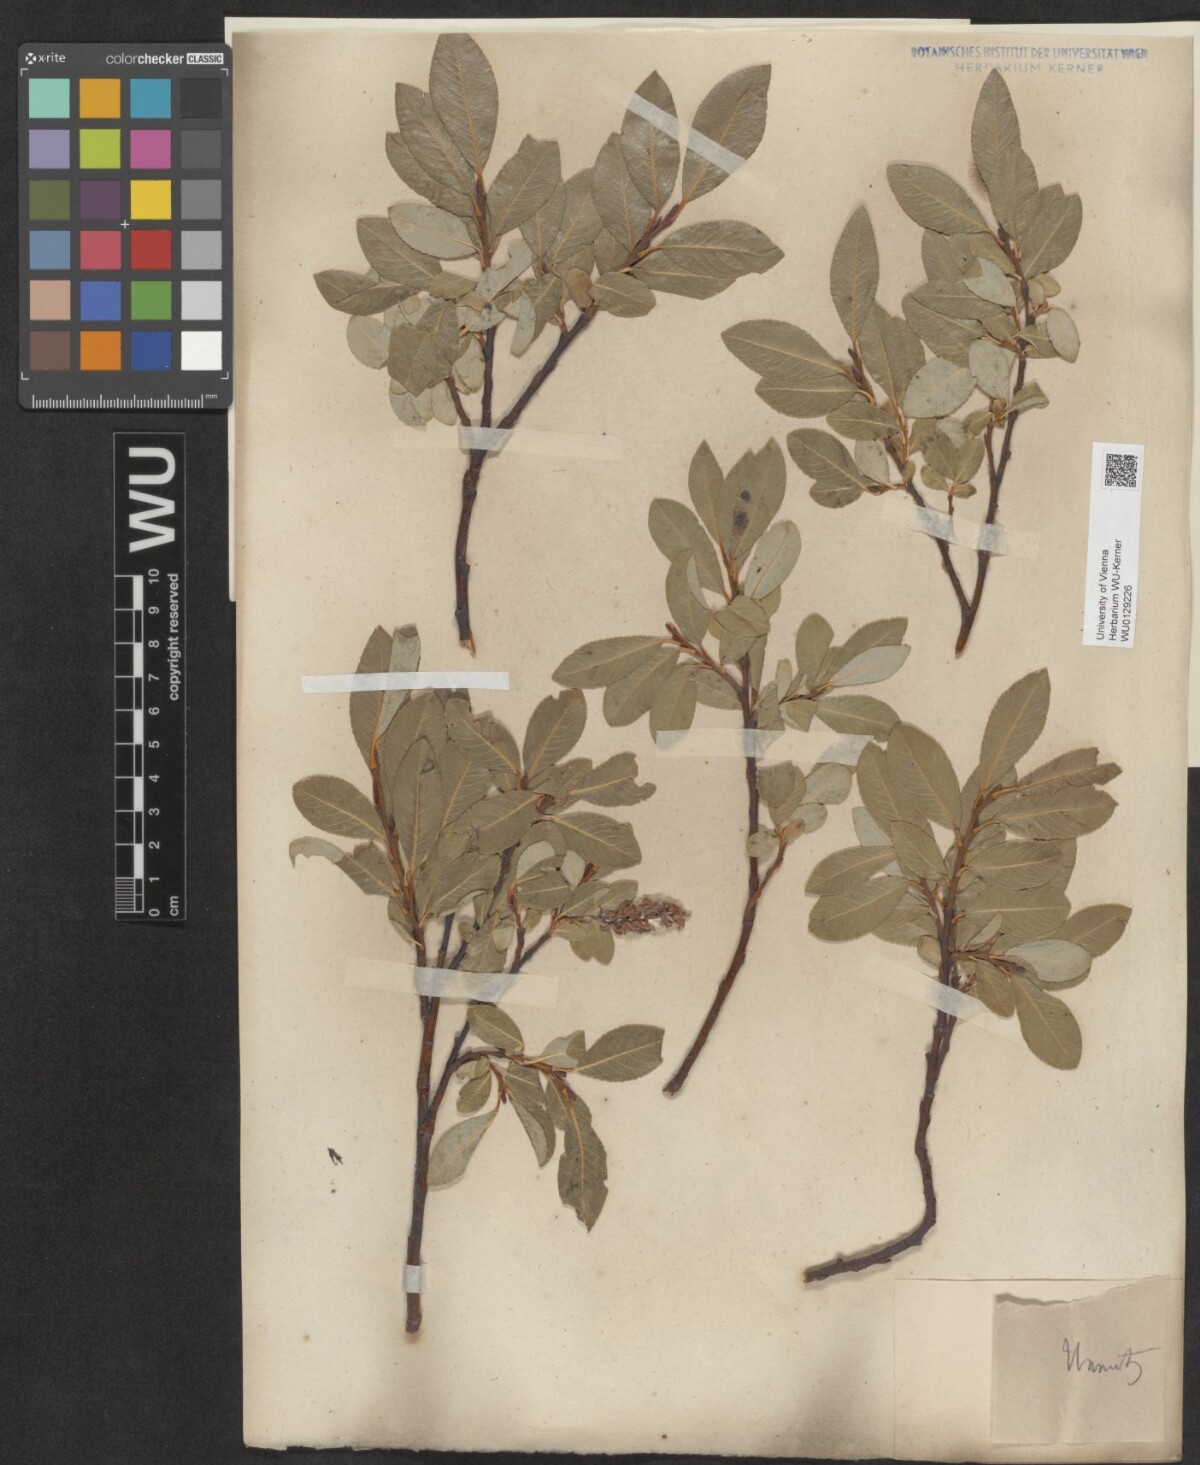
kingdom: Plantae
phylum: Tracheophyta
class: Magnoliopsida
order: Malpighiales
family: Salicaceae
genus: Salix
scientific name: Salix glabra
